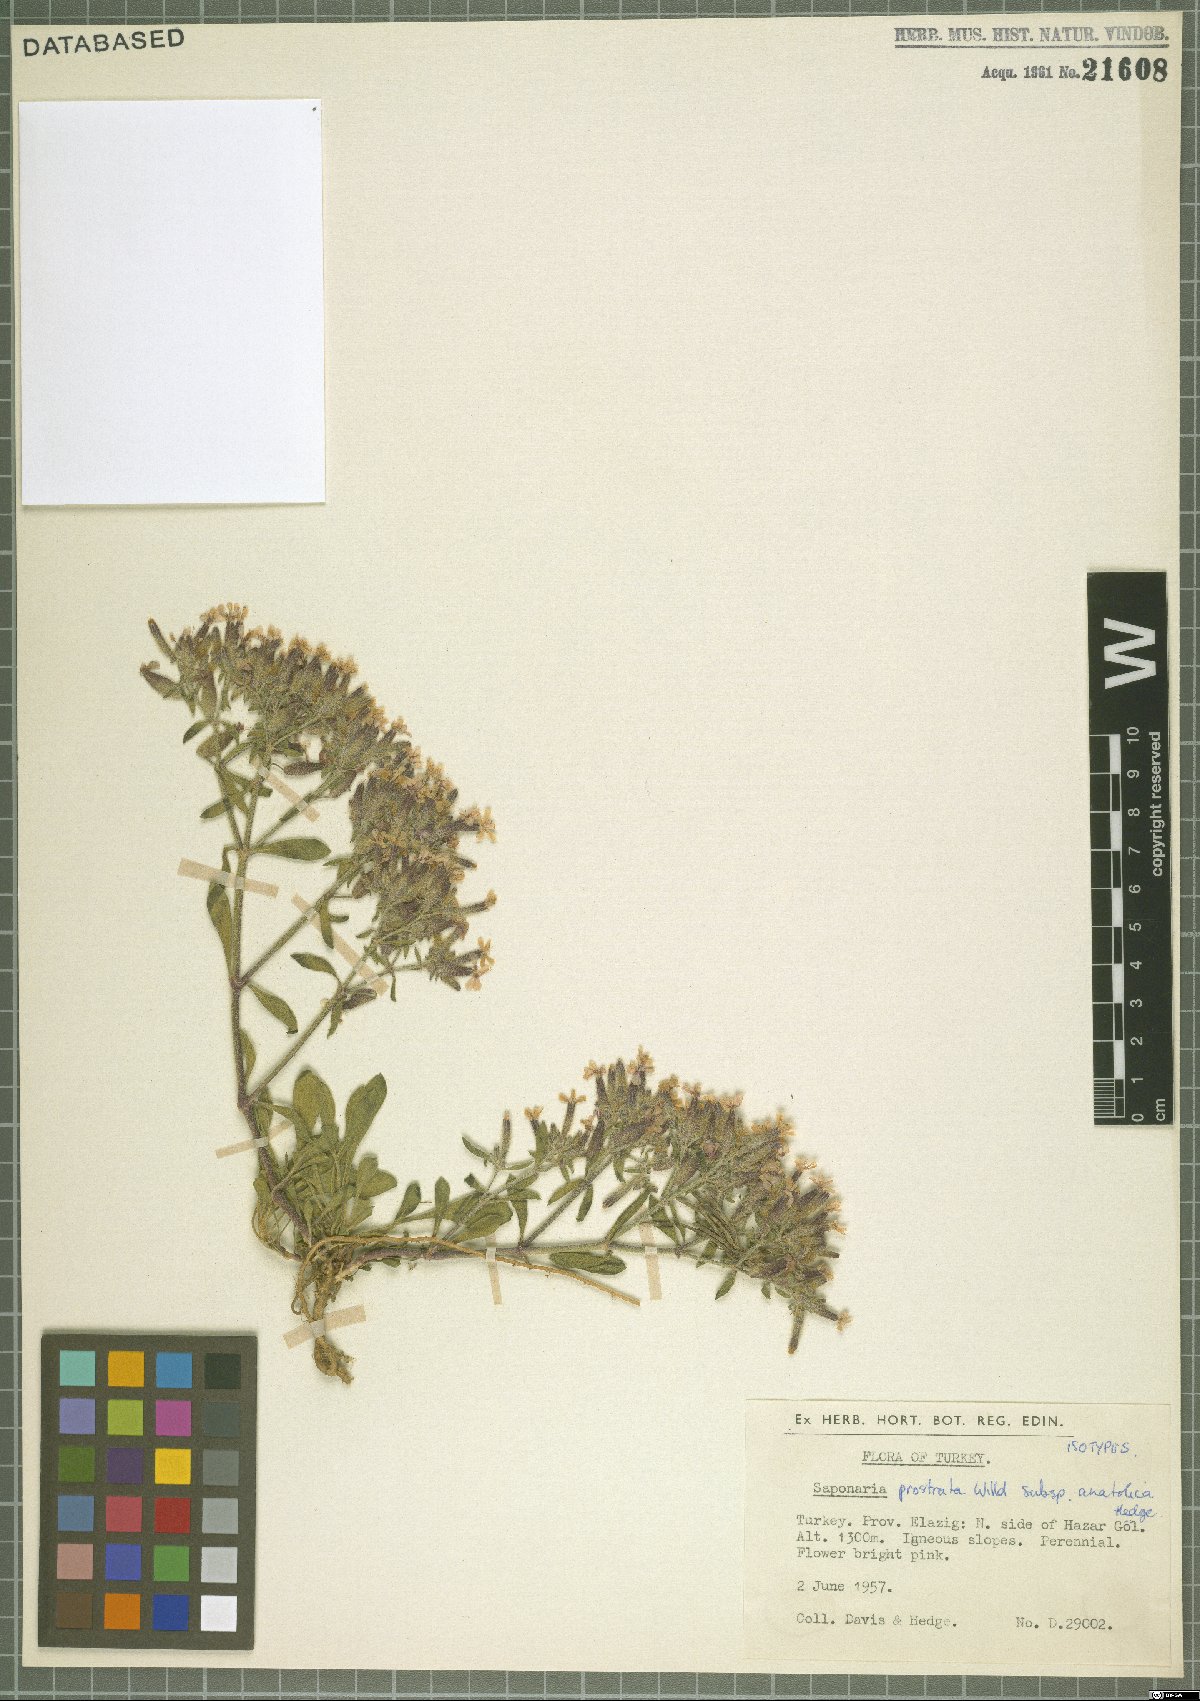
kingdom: Plantae
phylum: Tracheophyta
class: Magnoliopsida
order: Caryophyllales
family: Caryophyllaceae
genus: Saponaria
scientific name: Saponaria prostrata
